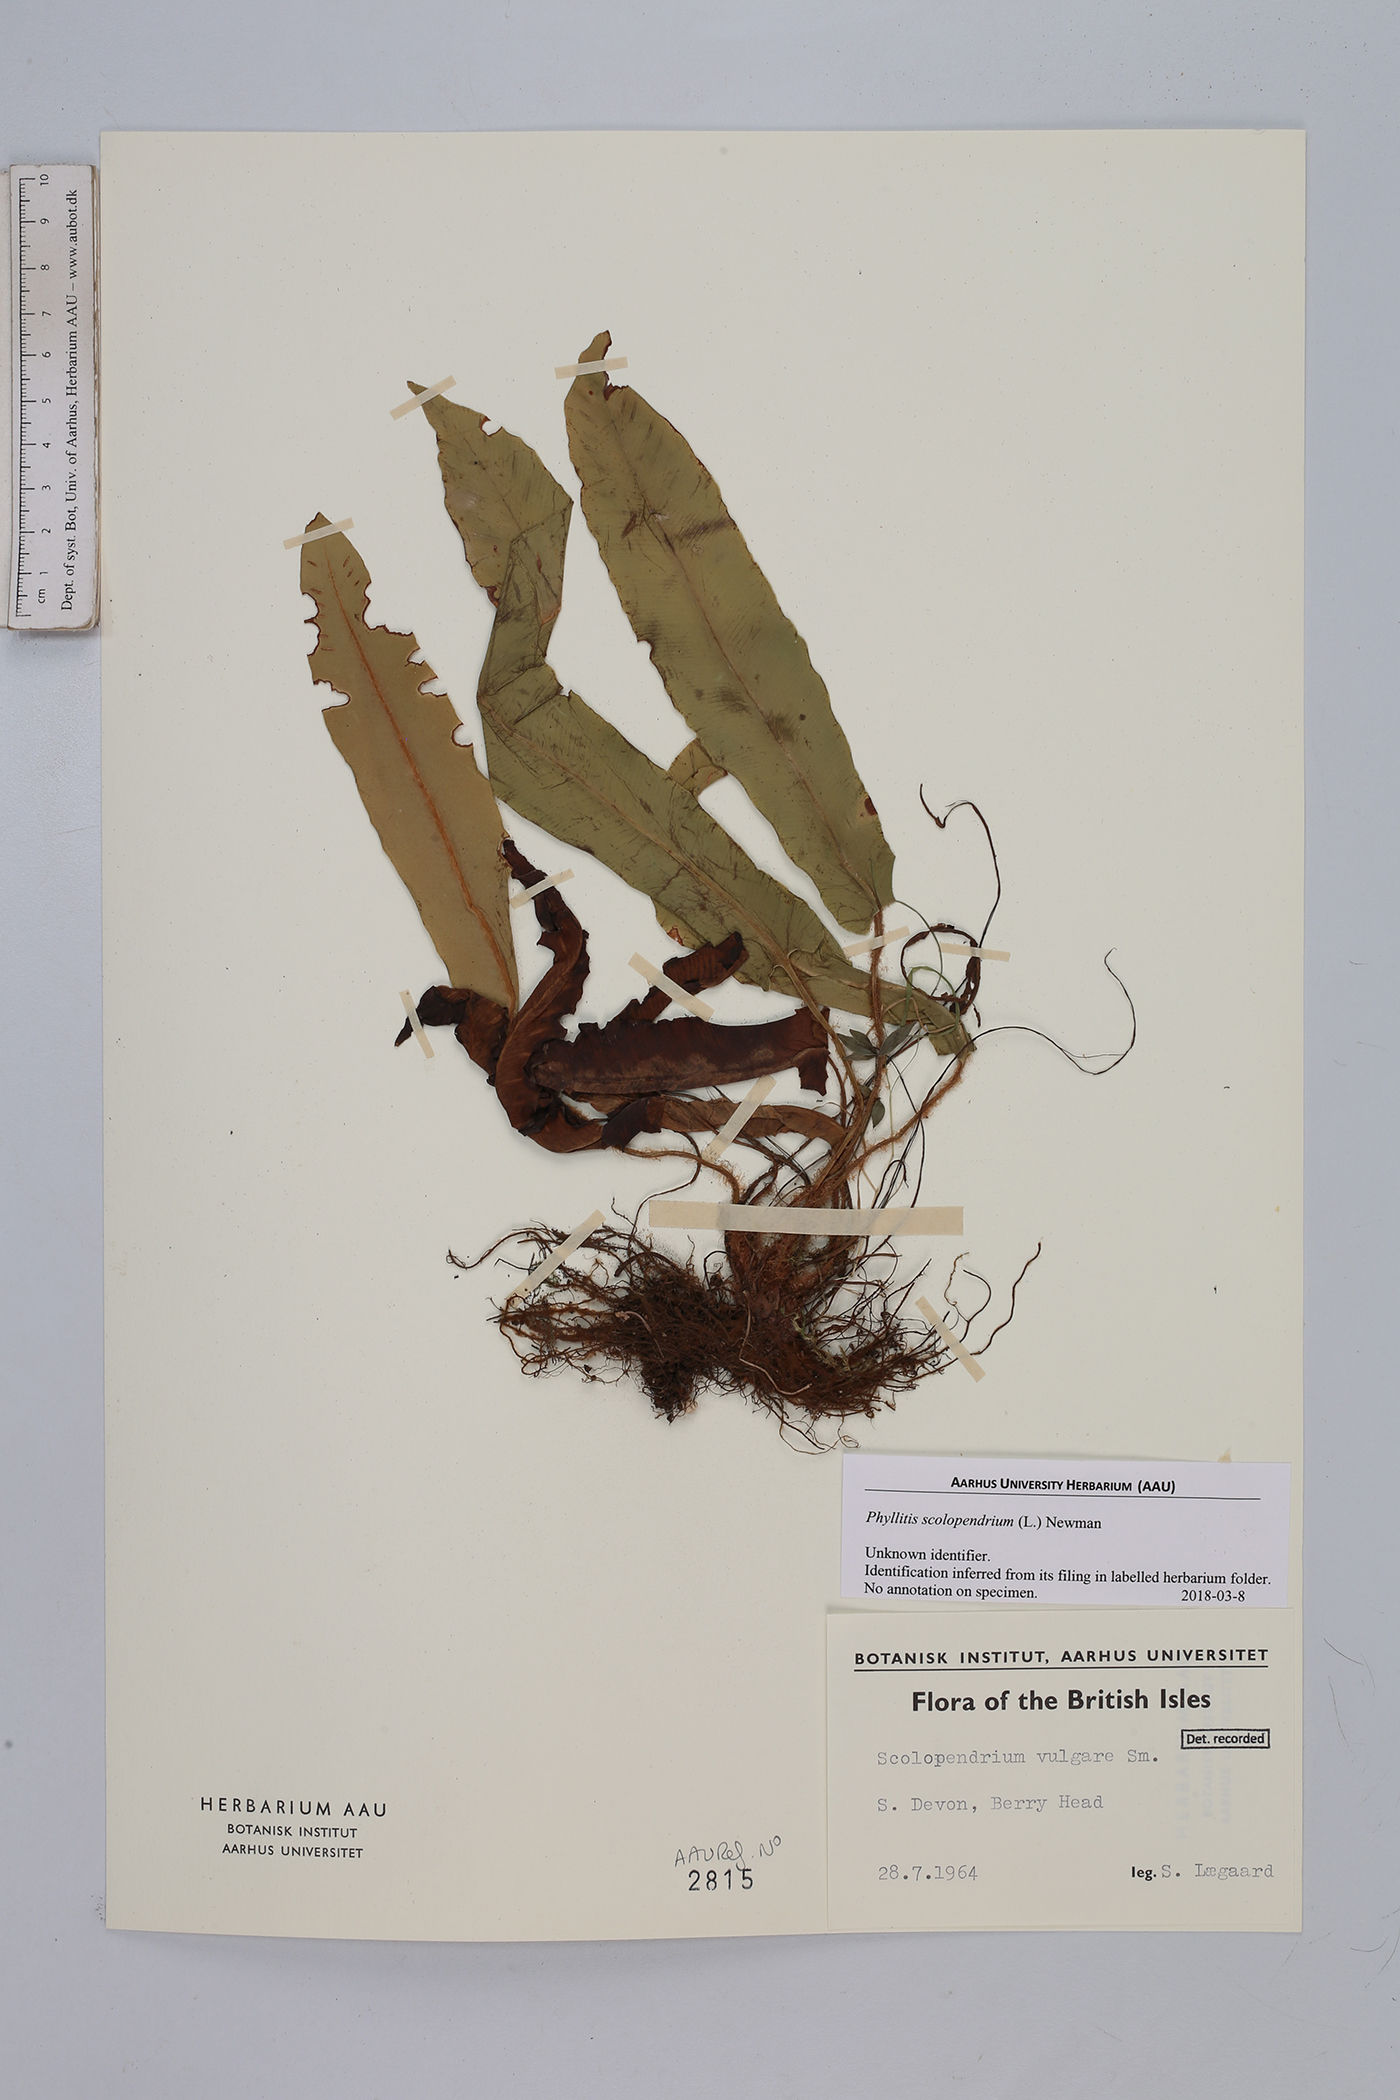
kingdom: Plantae
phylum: Tracheophyta
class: Polypodiopsida
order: Polypodiales
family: Aspleniaceae
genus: Asplenium
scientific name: Asplenium scolopendrium
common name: Hart's-tongue fern
